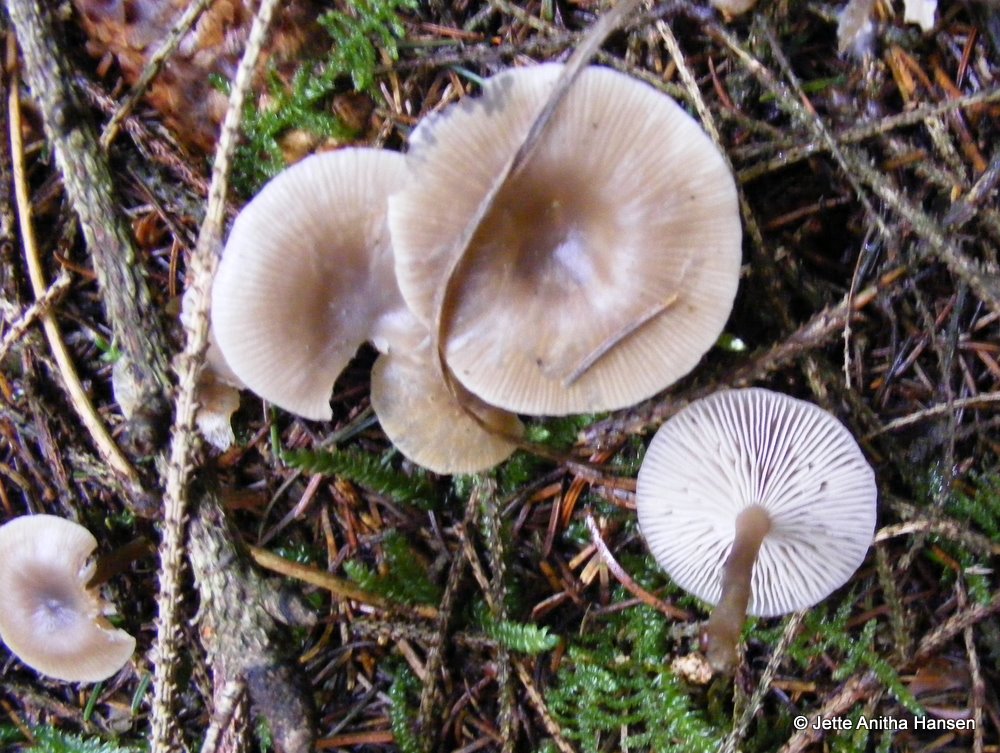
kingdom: Fungi
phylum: Basidiomycota
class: Agaricomycetes
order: Agaricales
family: Tricholomataceae
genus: Clitocybe
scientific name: Clitocybe vibecina
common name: randstribet tragthat
